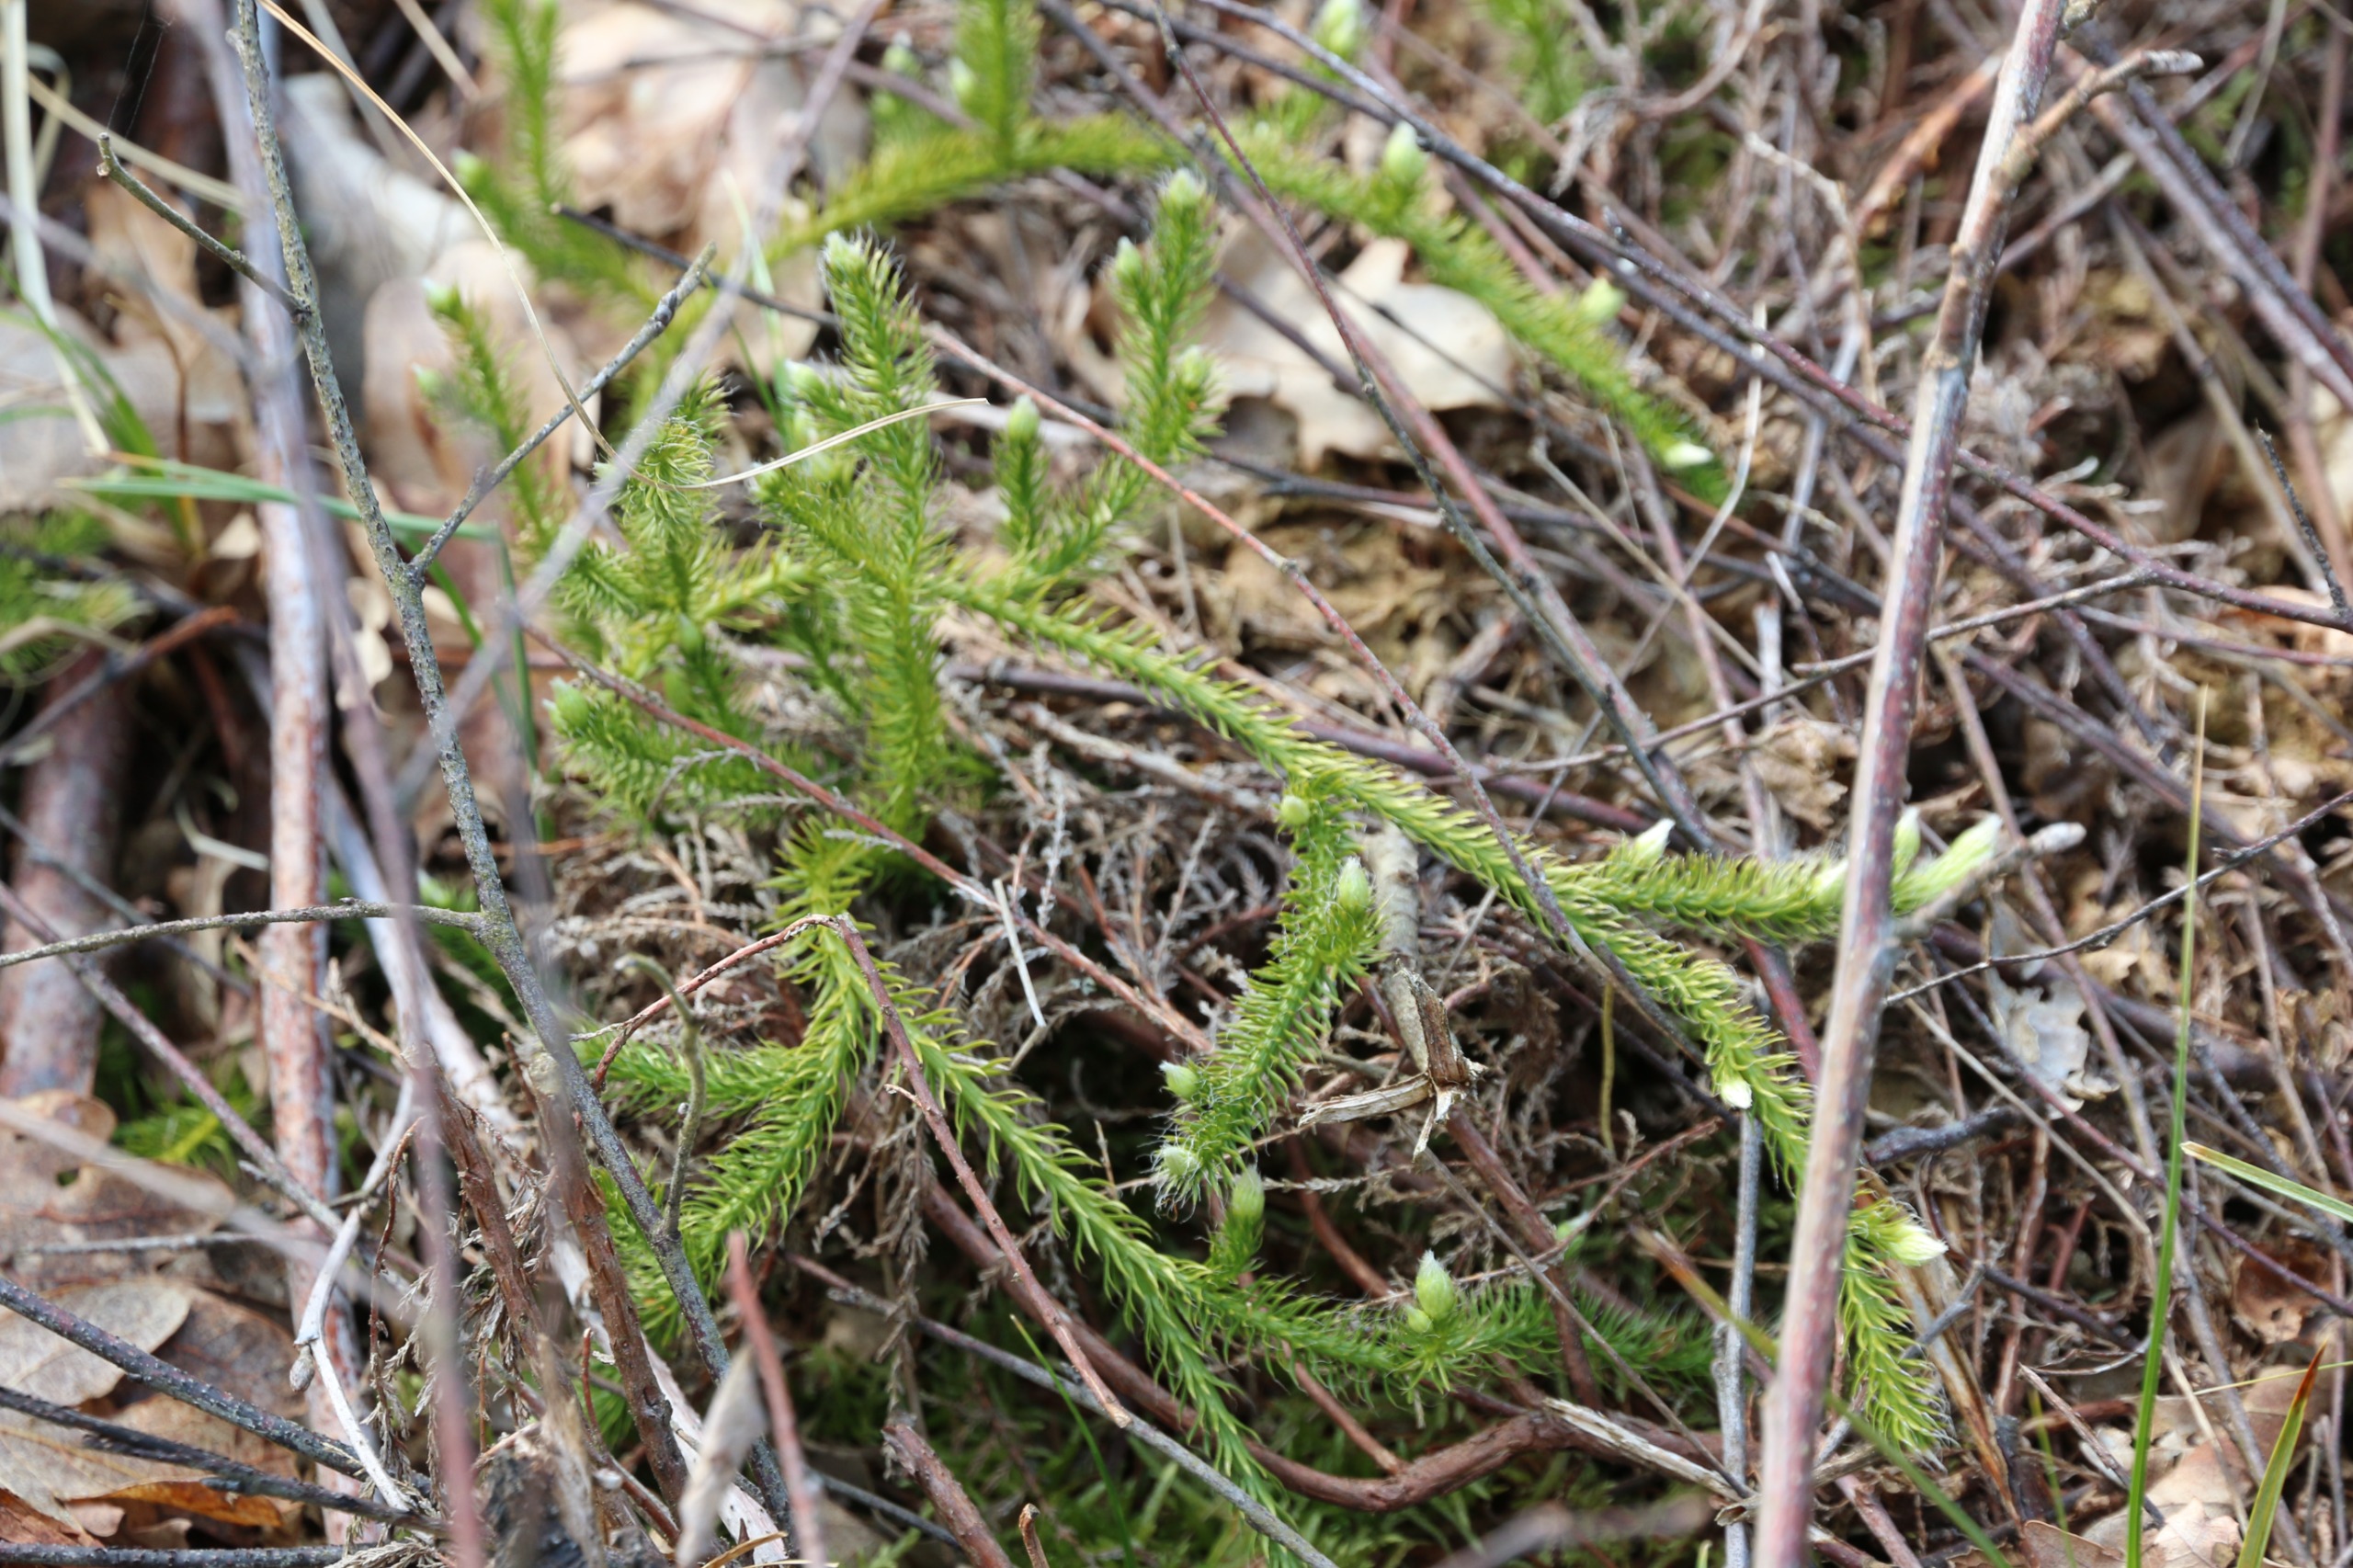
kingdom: Plantae
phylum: Tracheophyta
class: Lycopodiopsida
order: Lycopodiales
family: Lycopodiaceae
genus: Lycopodium
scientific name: Lycopodium clavatum
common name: Almindelig ulvefod
